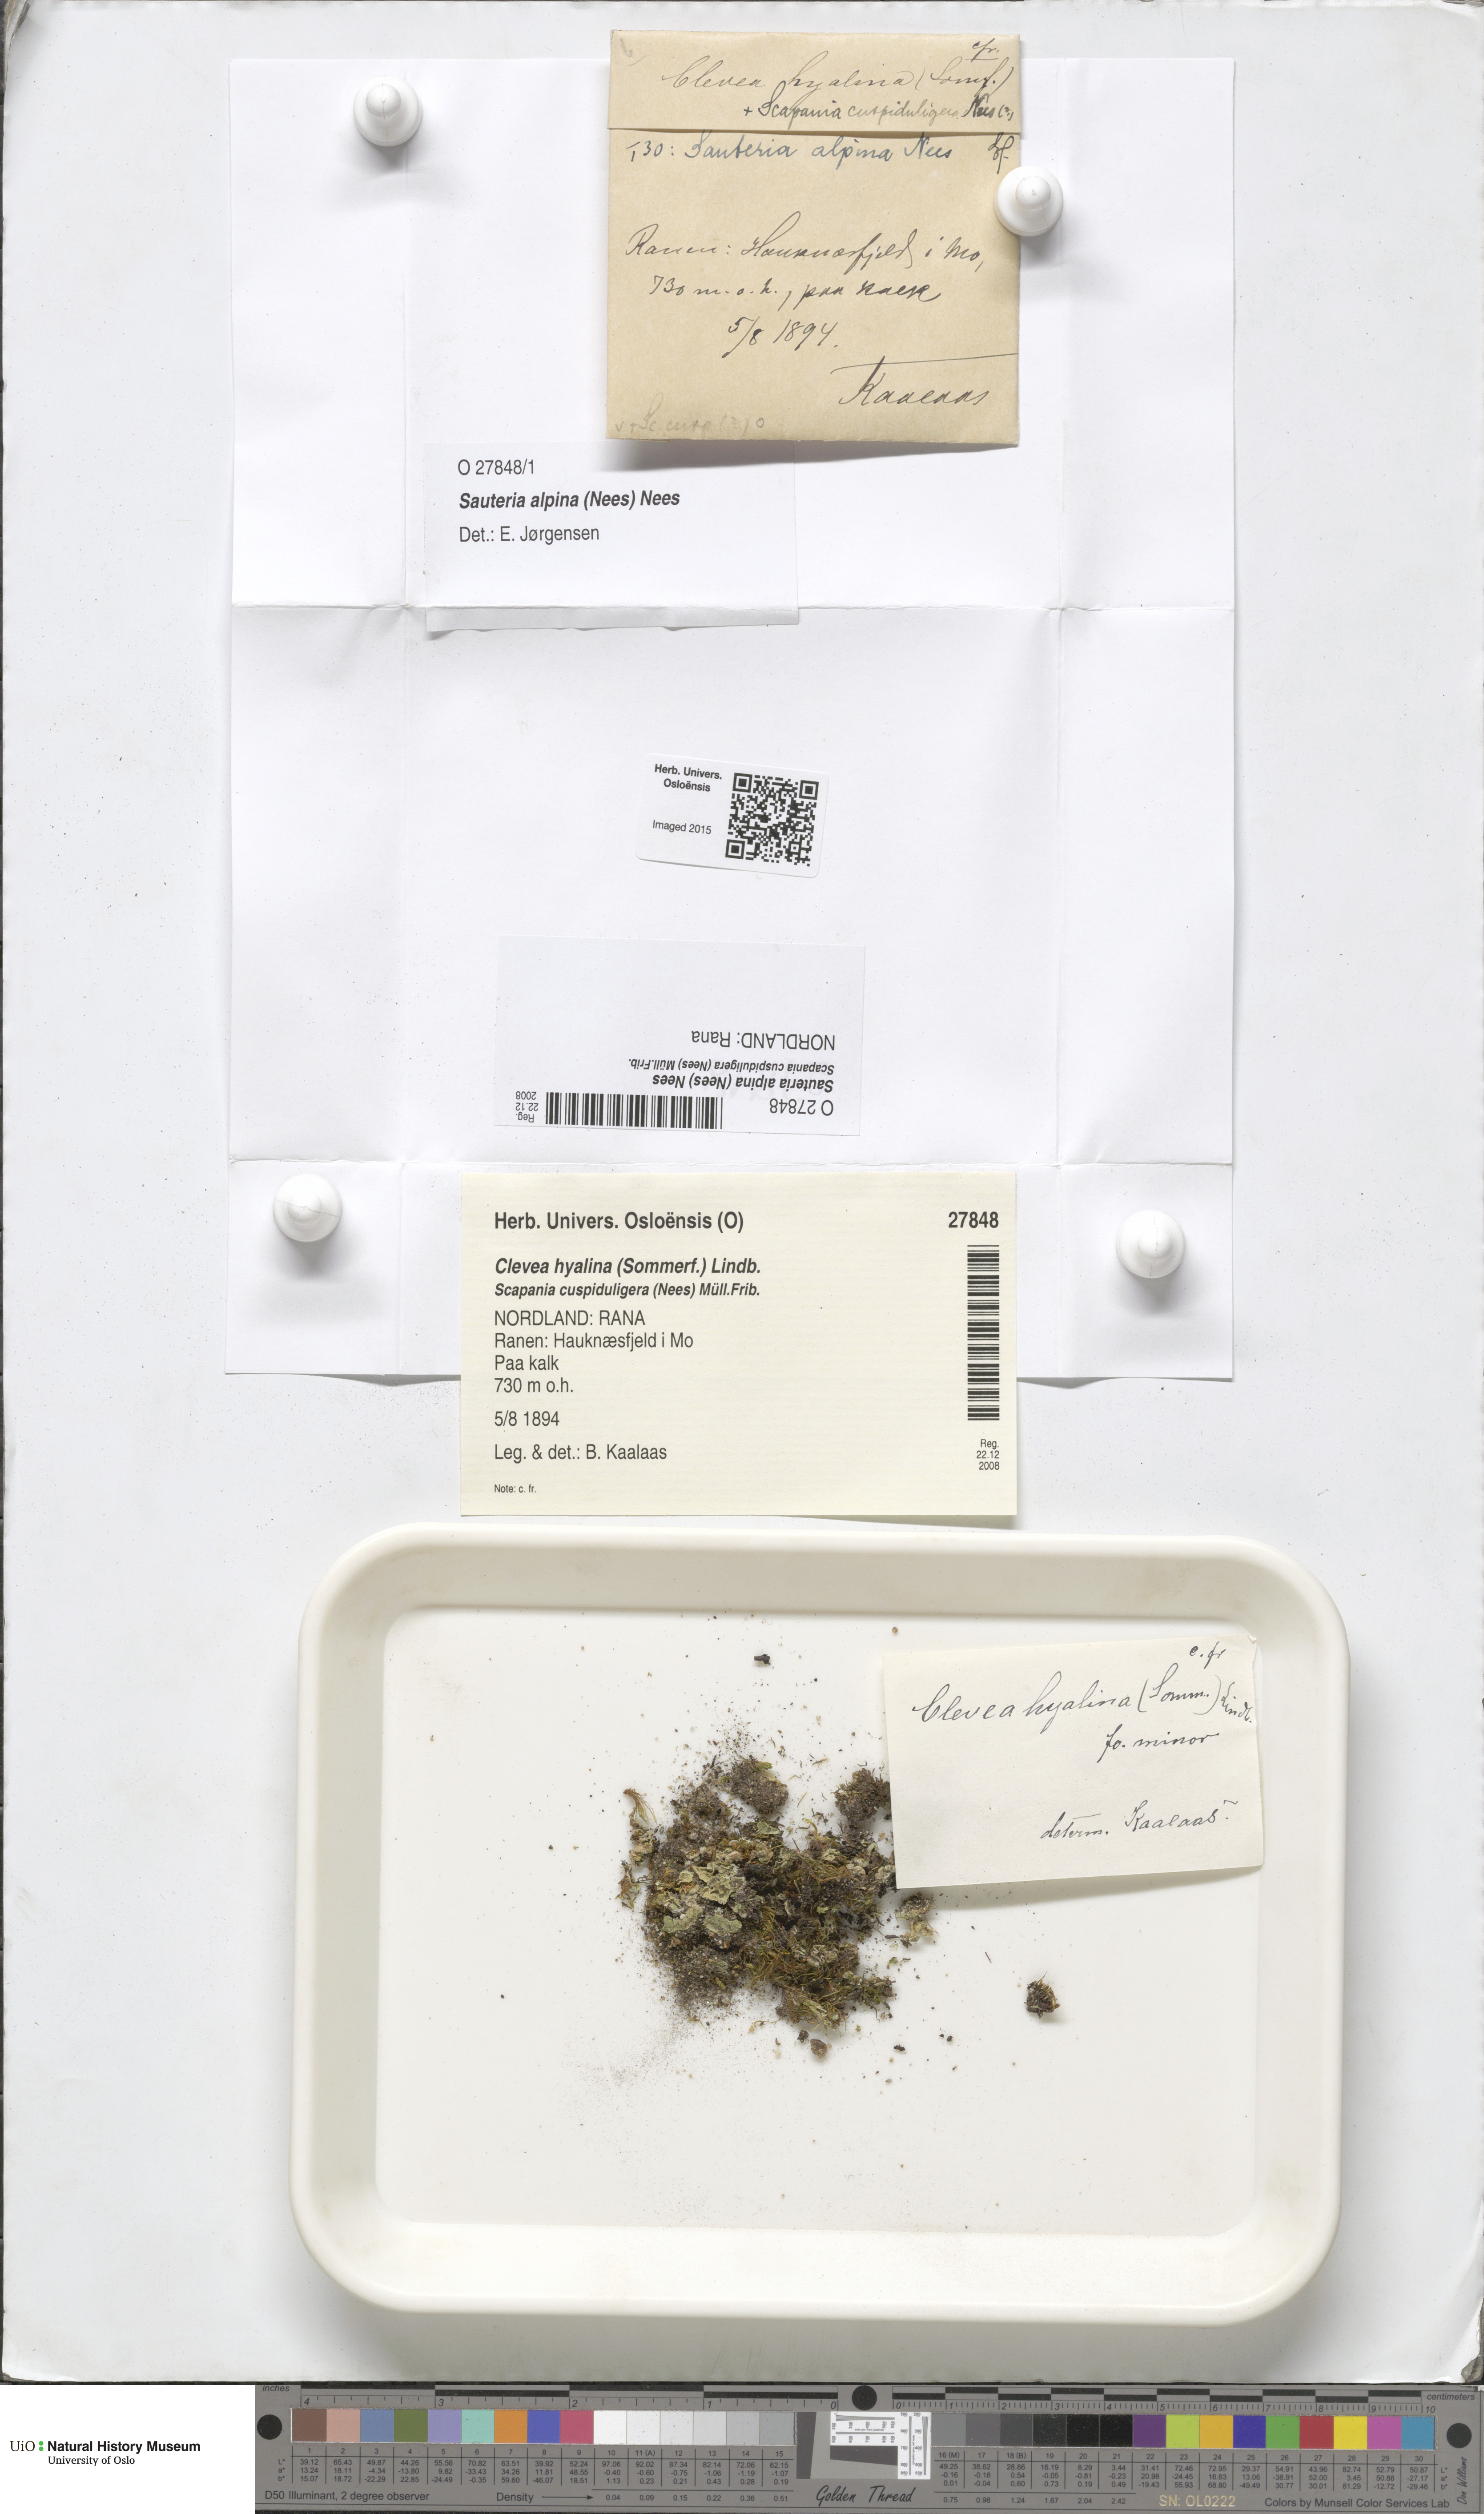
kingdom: Plantae
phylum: Marchantiophyta
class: Marchantiopsida
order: Marchantiales
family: Cleveaceae
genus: Sauteria
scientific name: Sauteria alpina
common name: Snow lungwort
